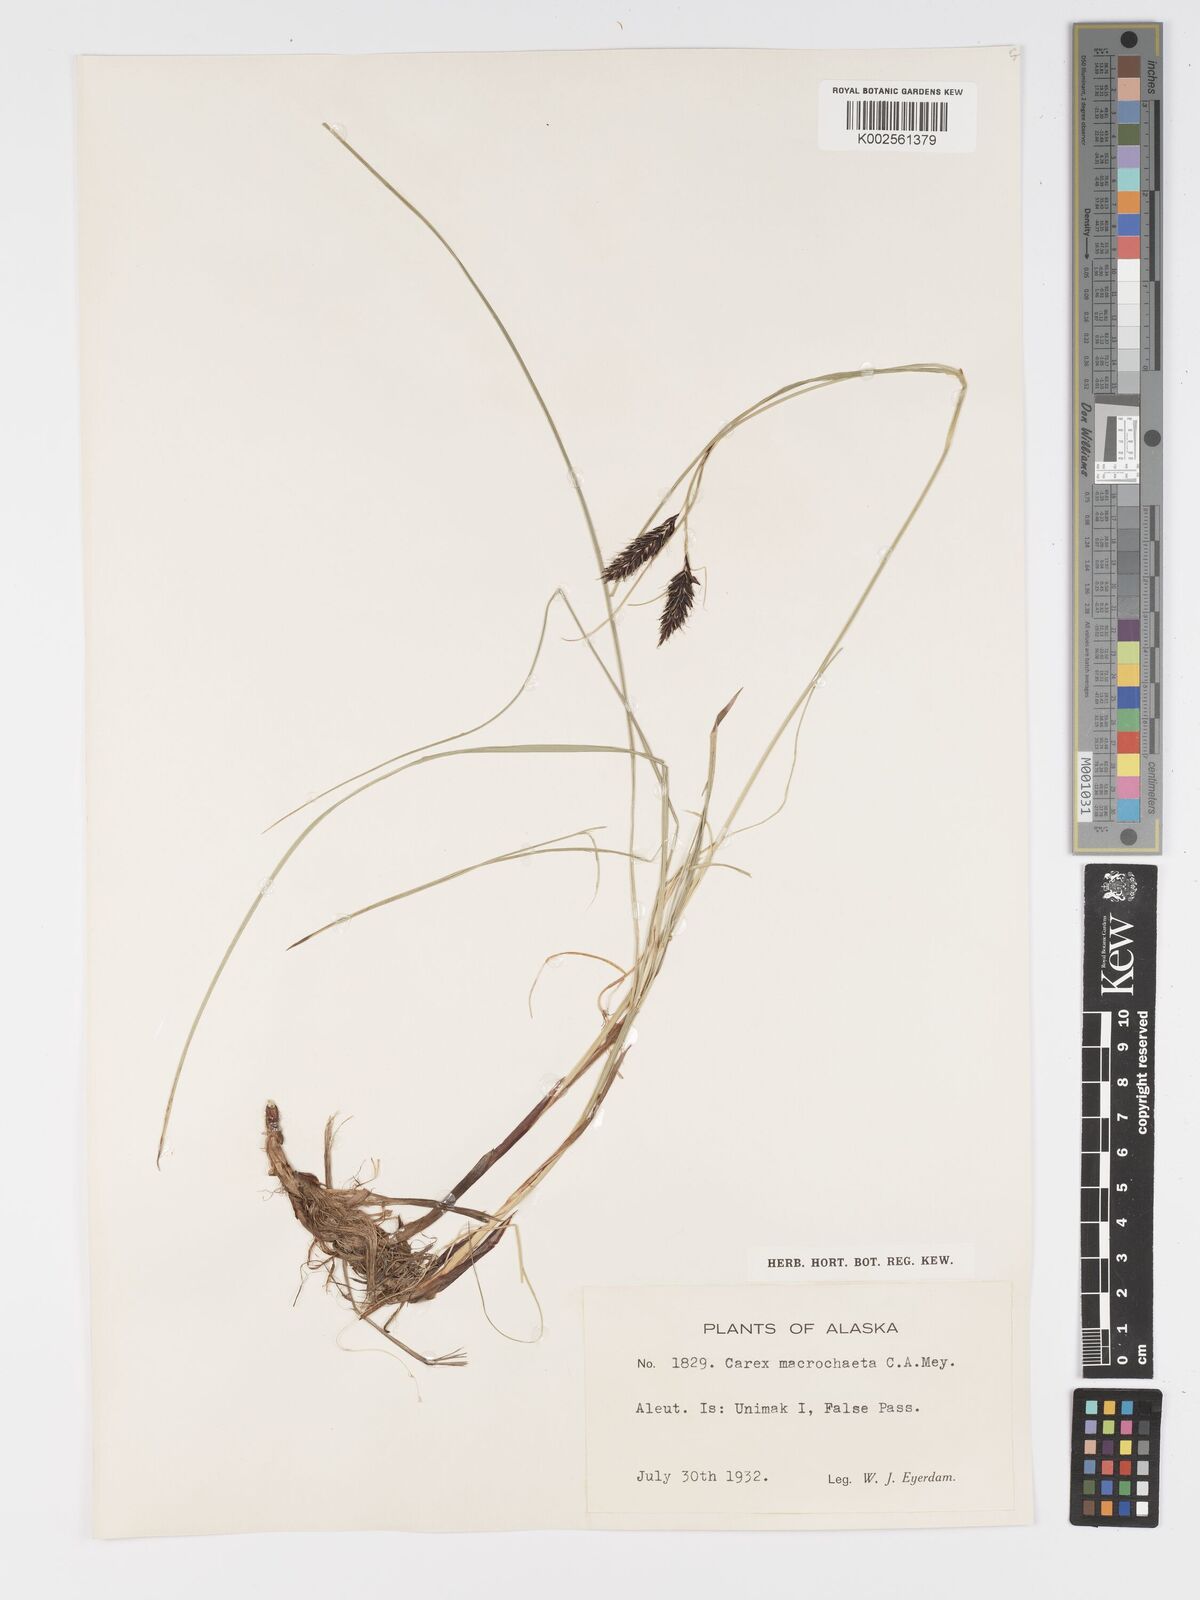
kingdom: Plantae
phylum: Tracheophyta
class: Liliopsida
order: Poales
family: Cyperaceae
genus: Carex
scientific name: Carex macrochaeta
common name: Alaska large awn sedge
